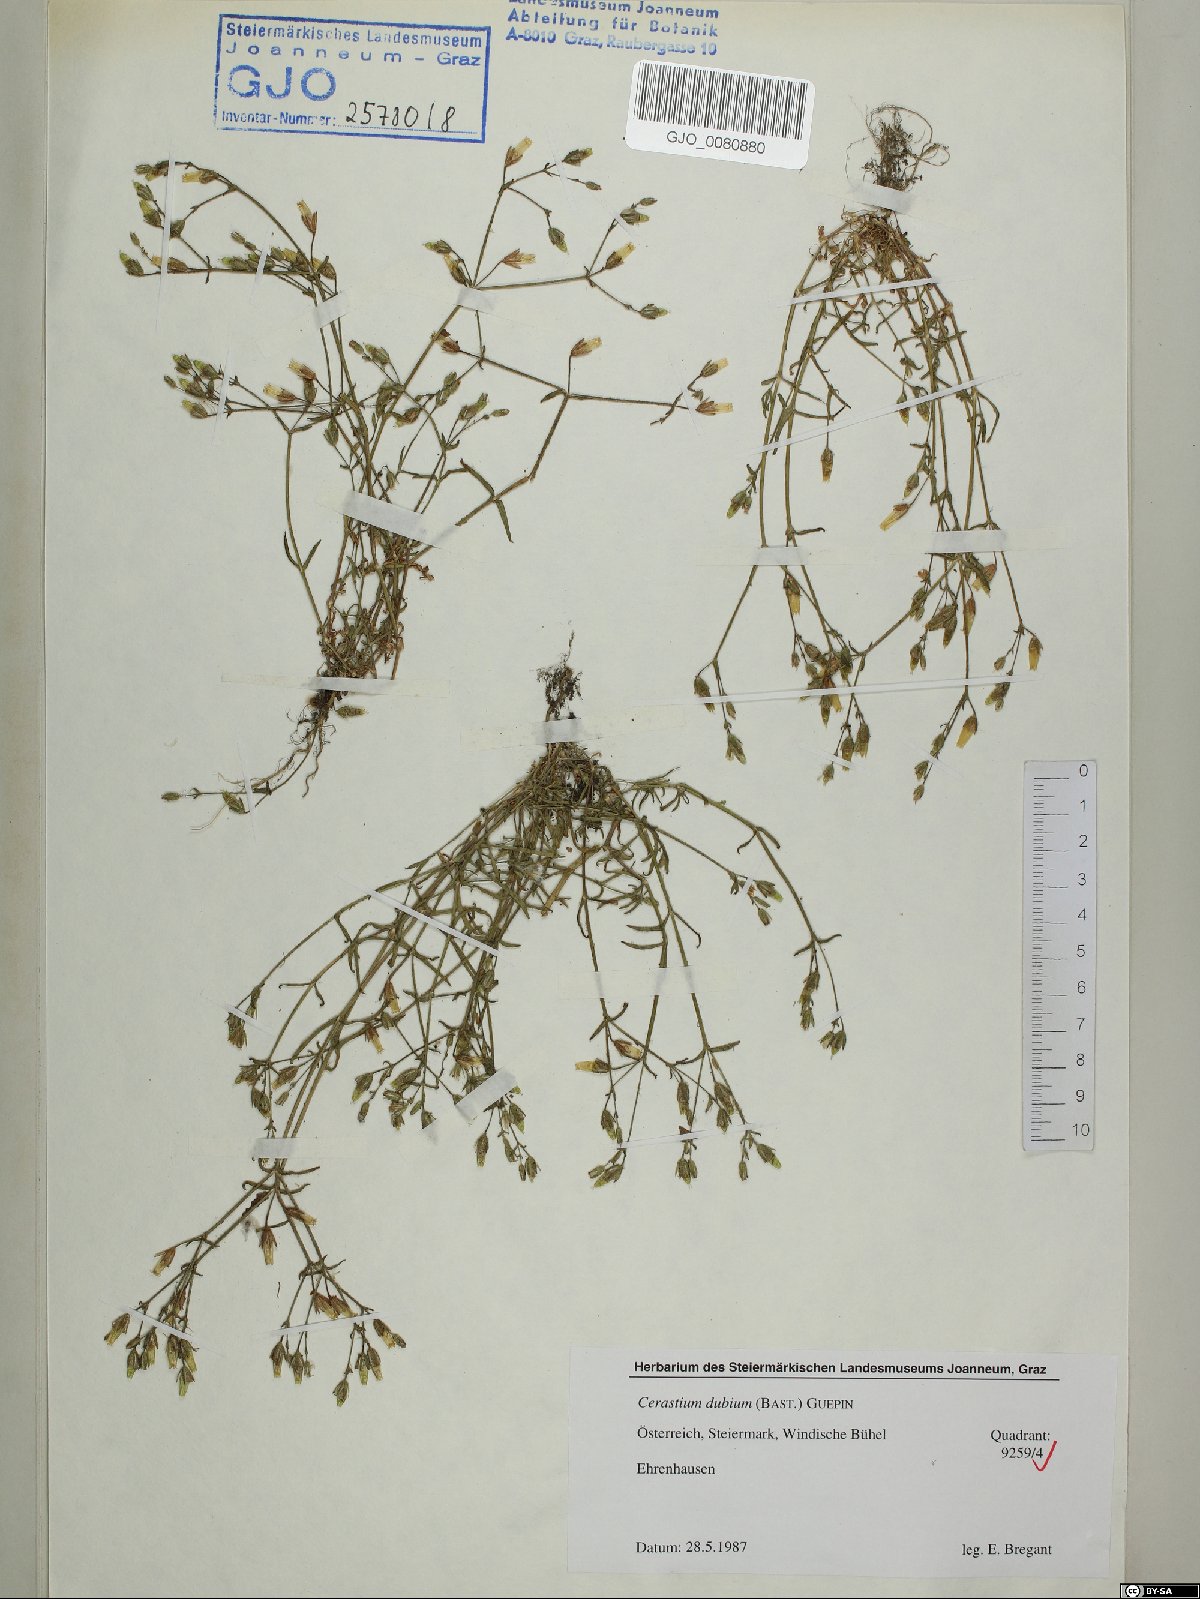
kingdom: Plantae
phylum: Tracheophyta
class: Magnoliopsida
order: Caryophyllales
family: Caryophyllaceae
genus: Dichodon
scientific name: Dichodon viscidum
